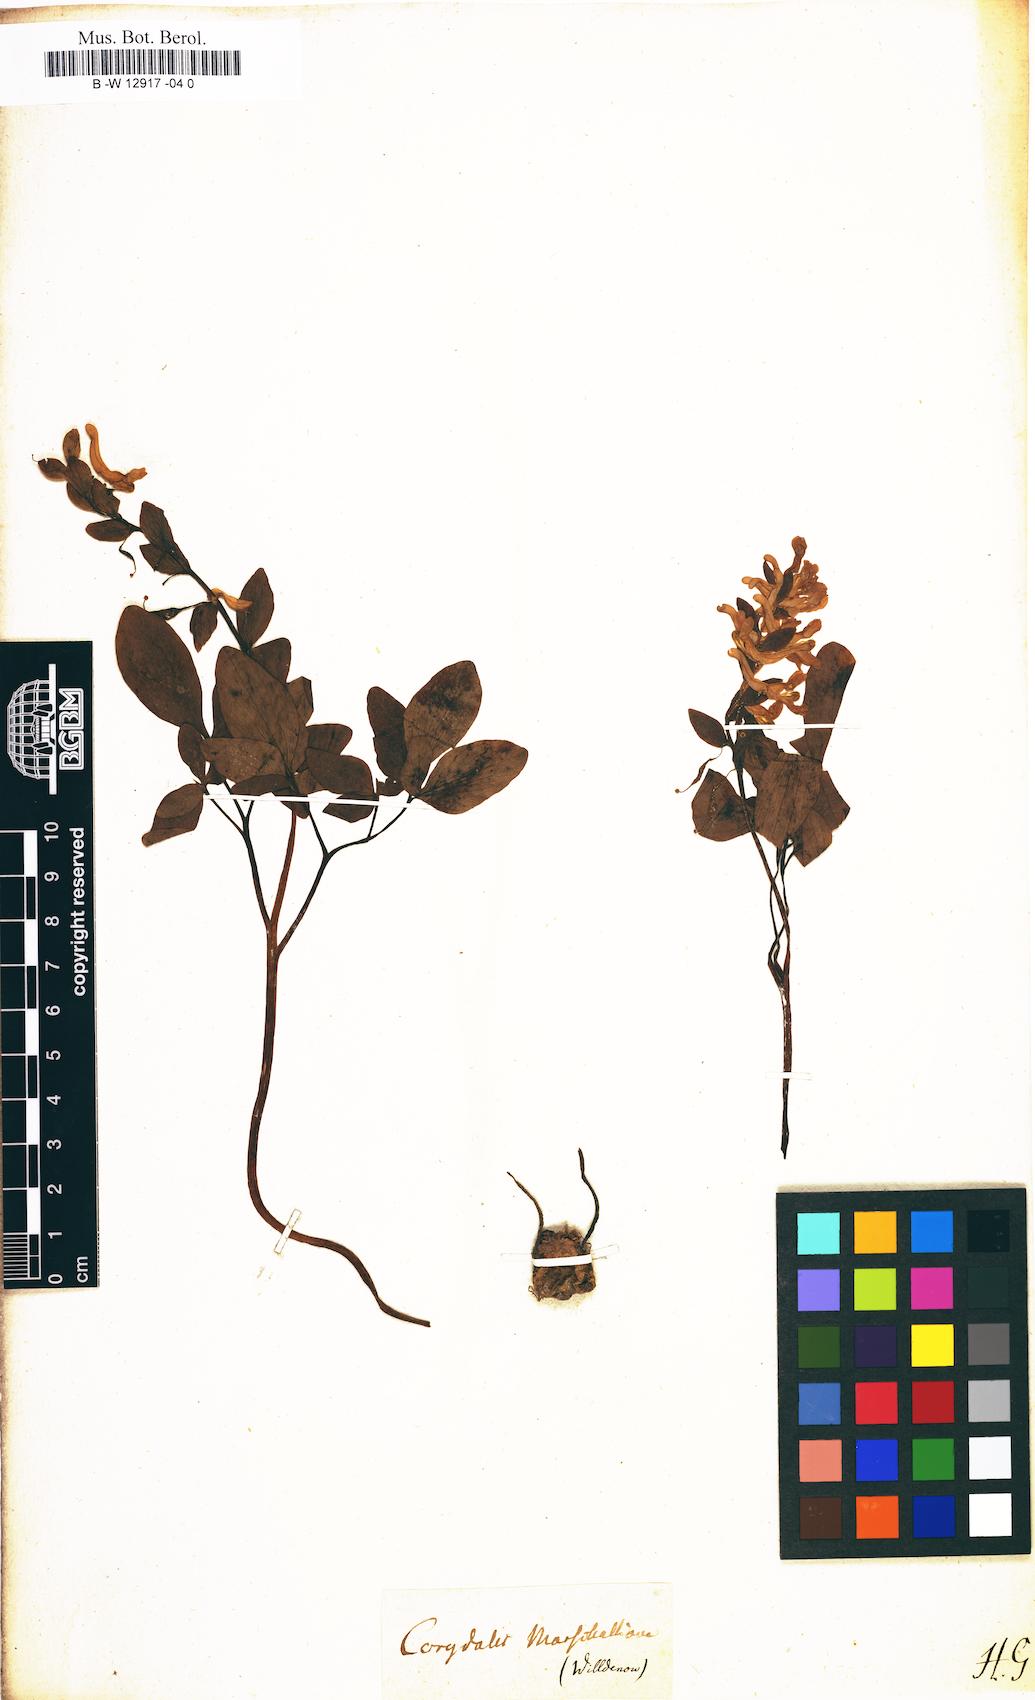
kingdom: Plantae
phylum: Tracheophyta
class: Magnoliopsida
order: Ranunculales
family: Papaveraceae
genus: Fumaria
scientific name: Fumaria marschalliana
